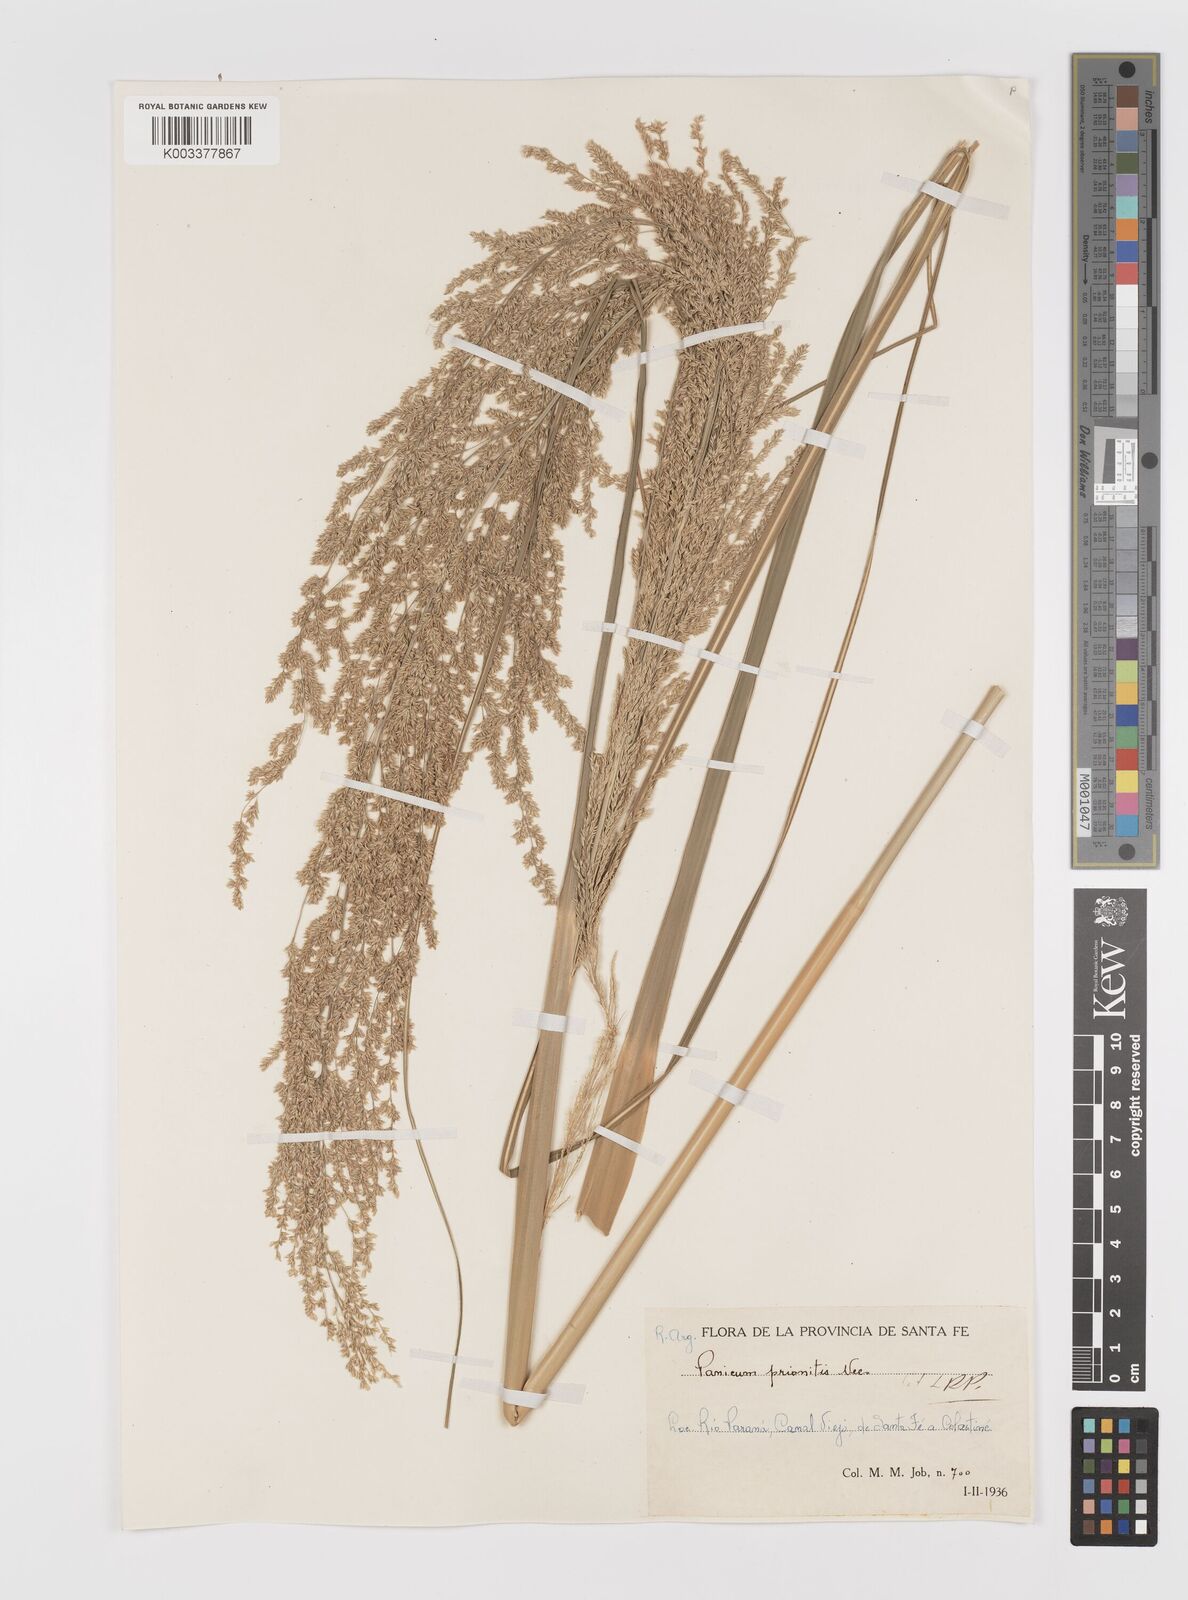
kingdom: Plantae
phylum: Tracheophyta
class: Liliopsida
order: Poales
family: Poaceae
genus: Coleataenia
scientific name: Coleataenia prionitis
